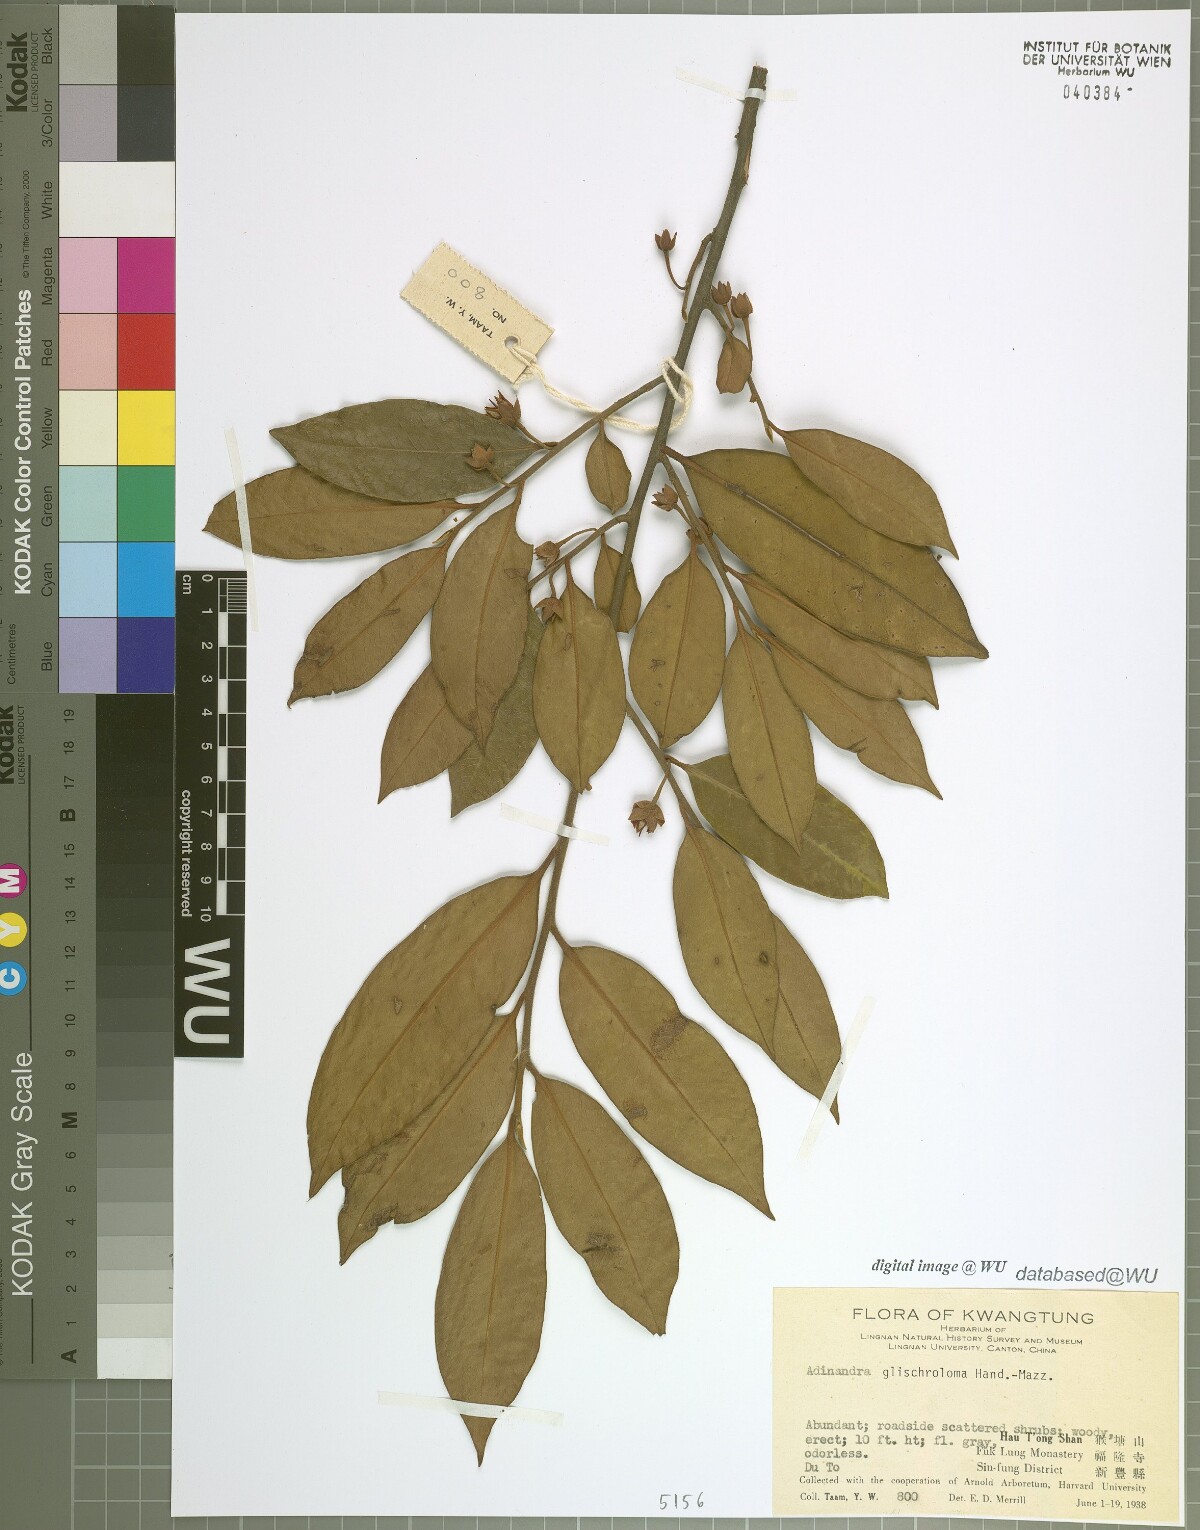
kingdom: Plantae
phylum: Tracheophyta
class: Magnoliopsida
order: Ericales
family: Pentaphylacaceae
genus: Adinandra
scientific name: Adinandra glischroloma
